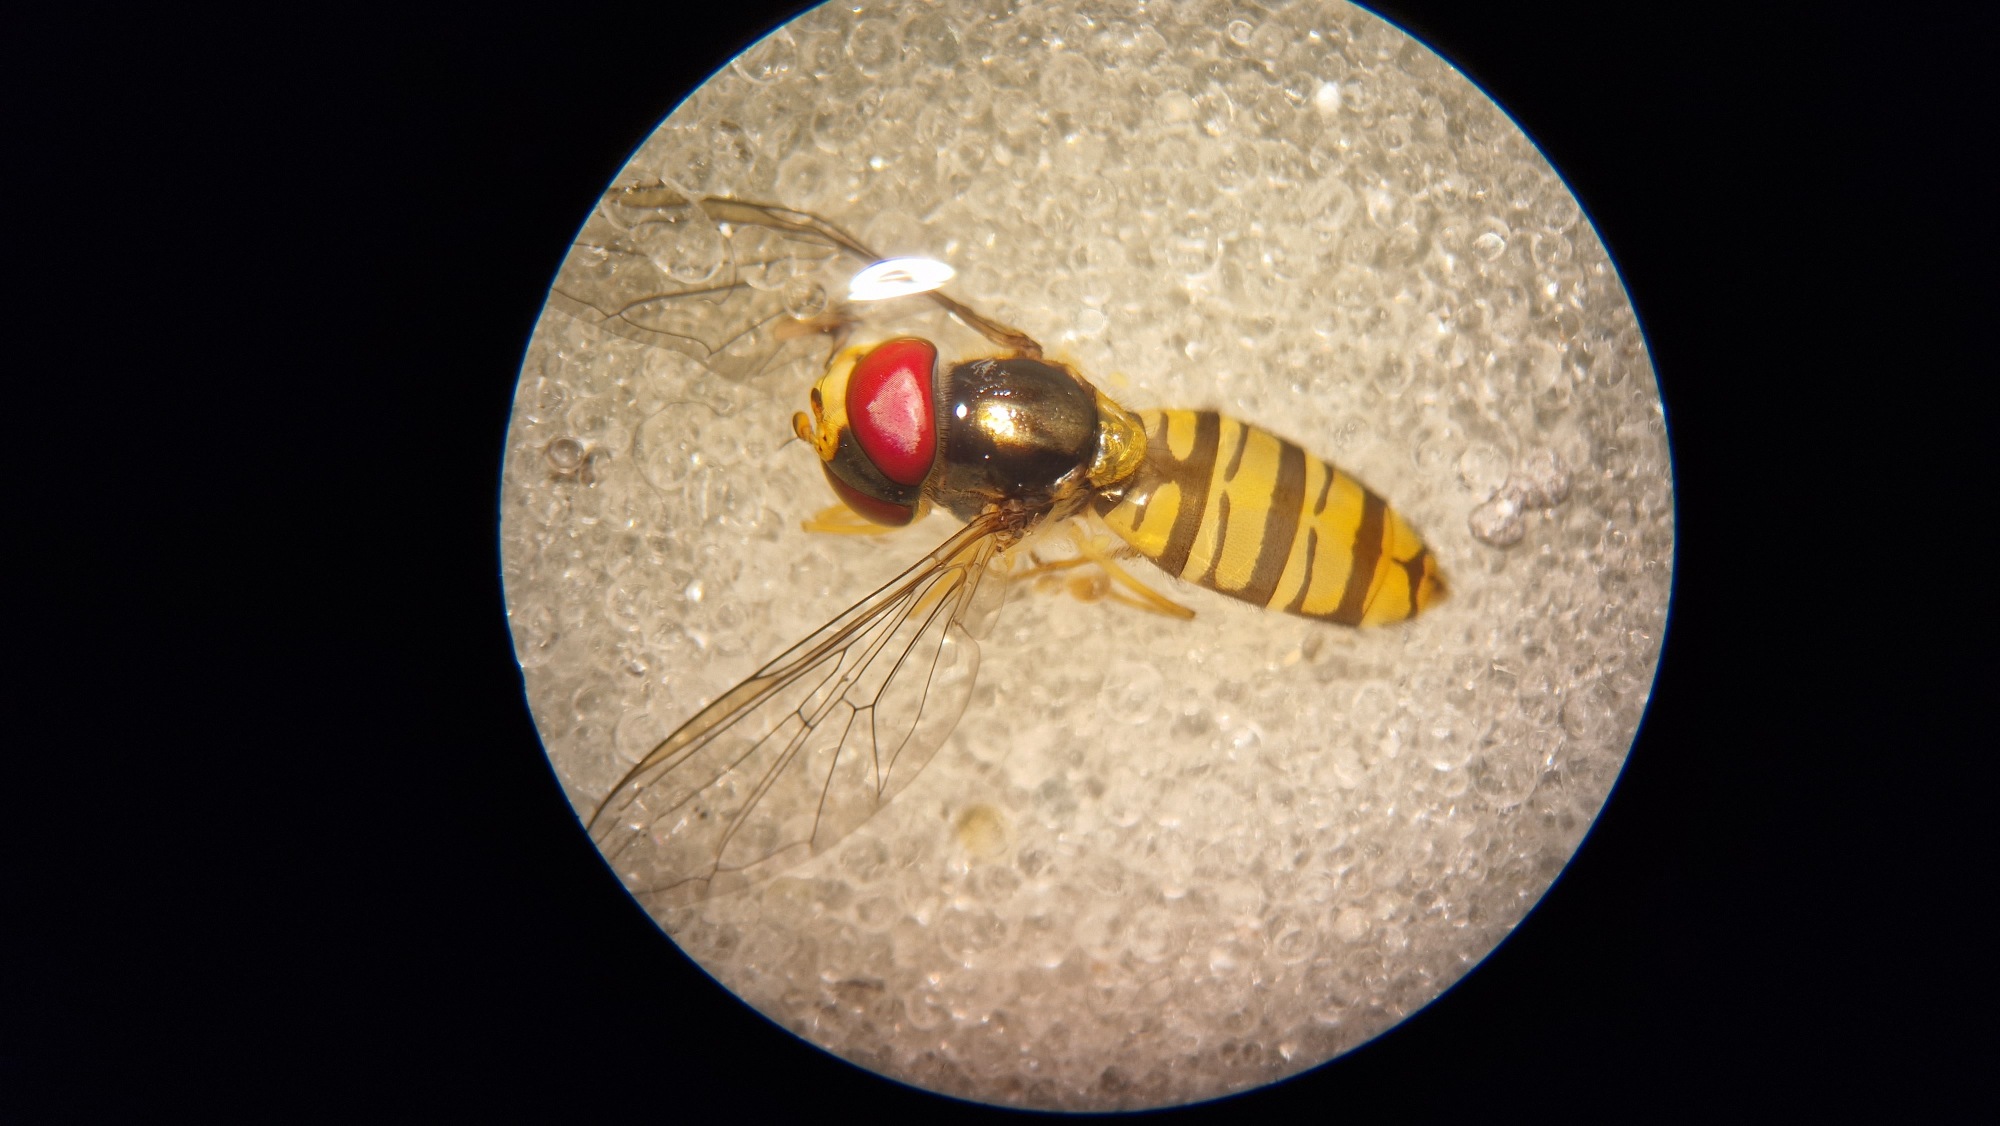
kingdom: Animalia
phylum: Arthropoda
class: Insecta
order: Diptera
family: Syrphidae
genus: Episyrphus
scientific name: Episyrphus balteatus
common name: Dobbeltbåndet svirreflue
